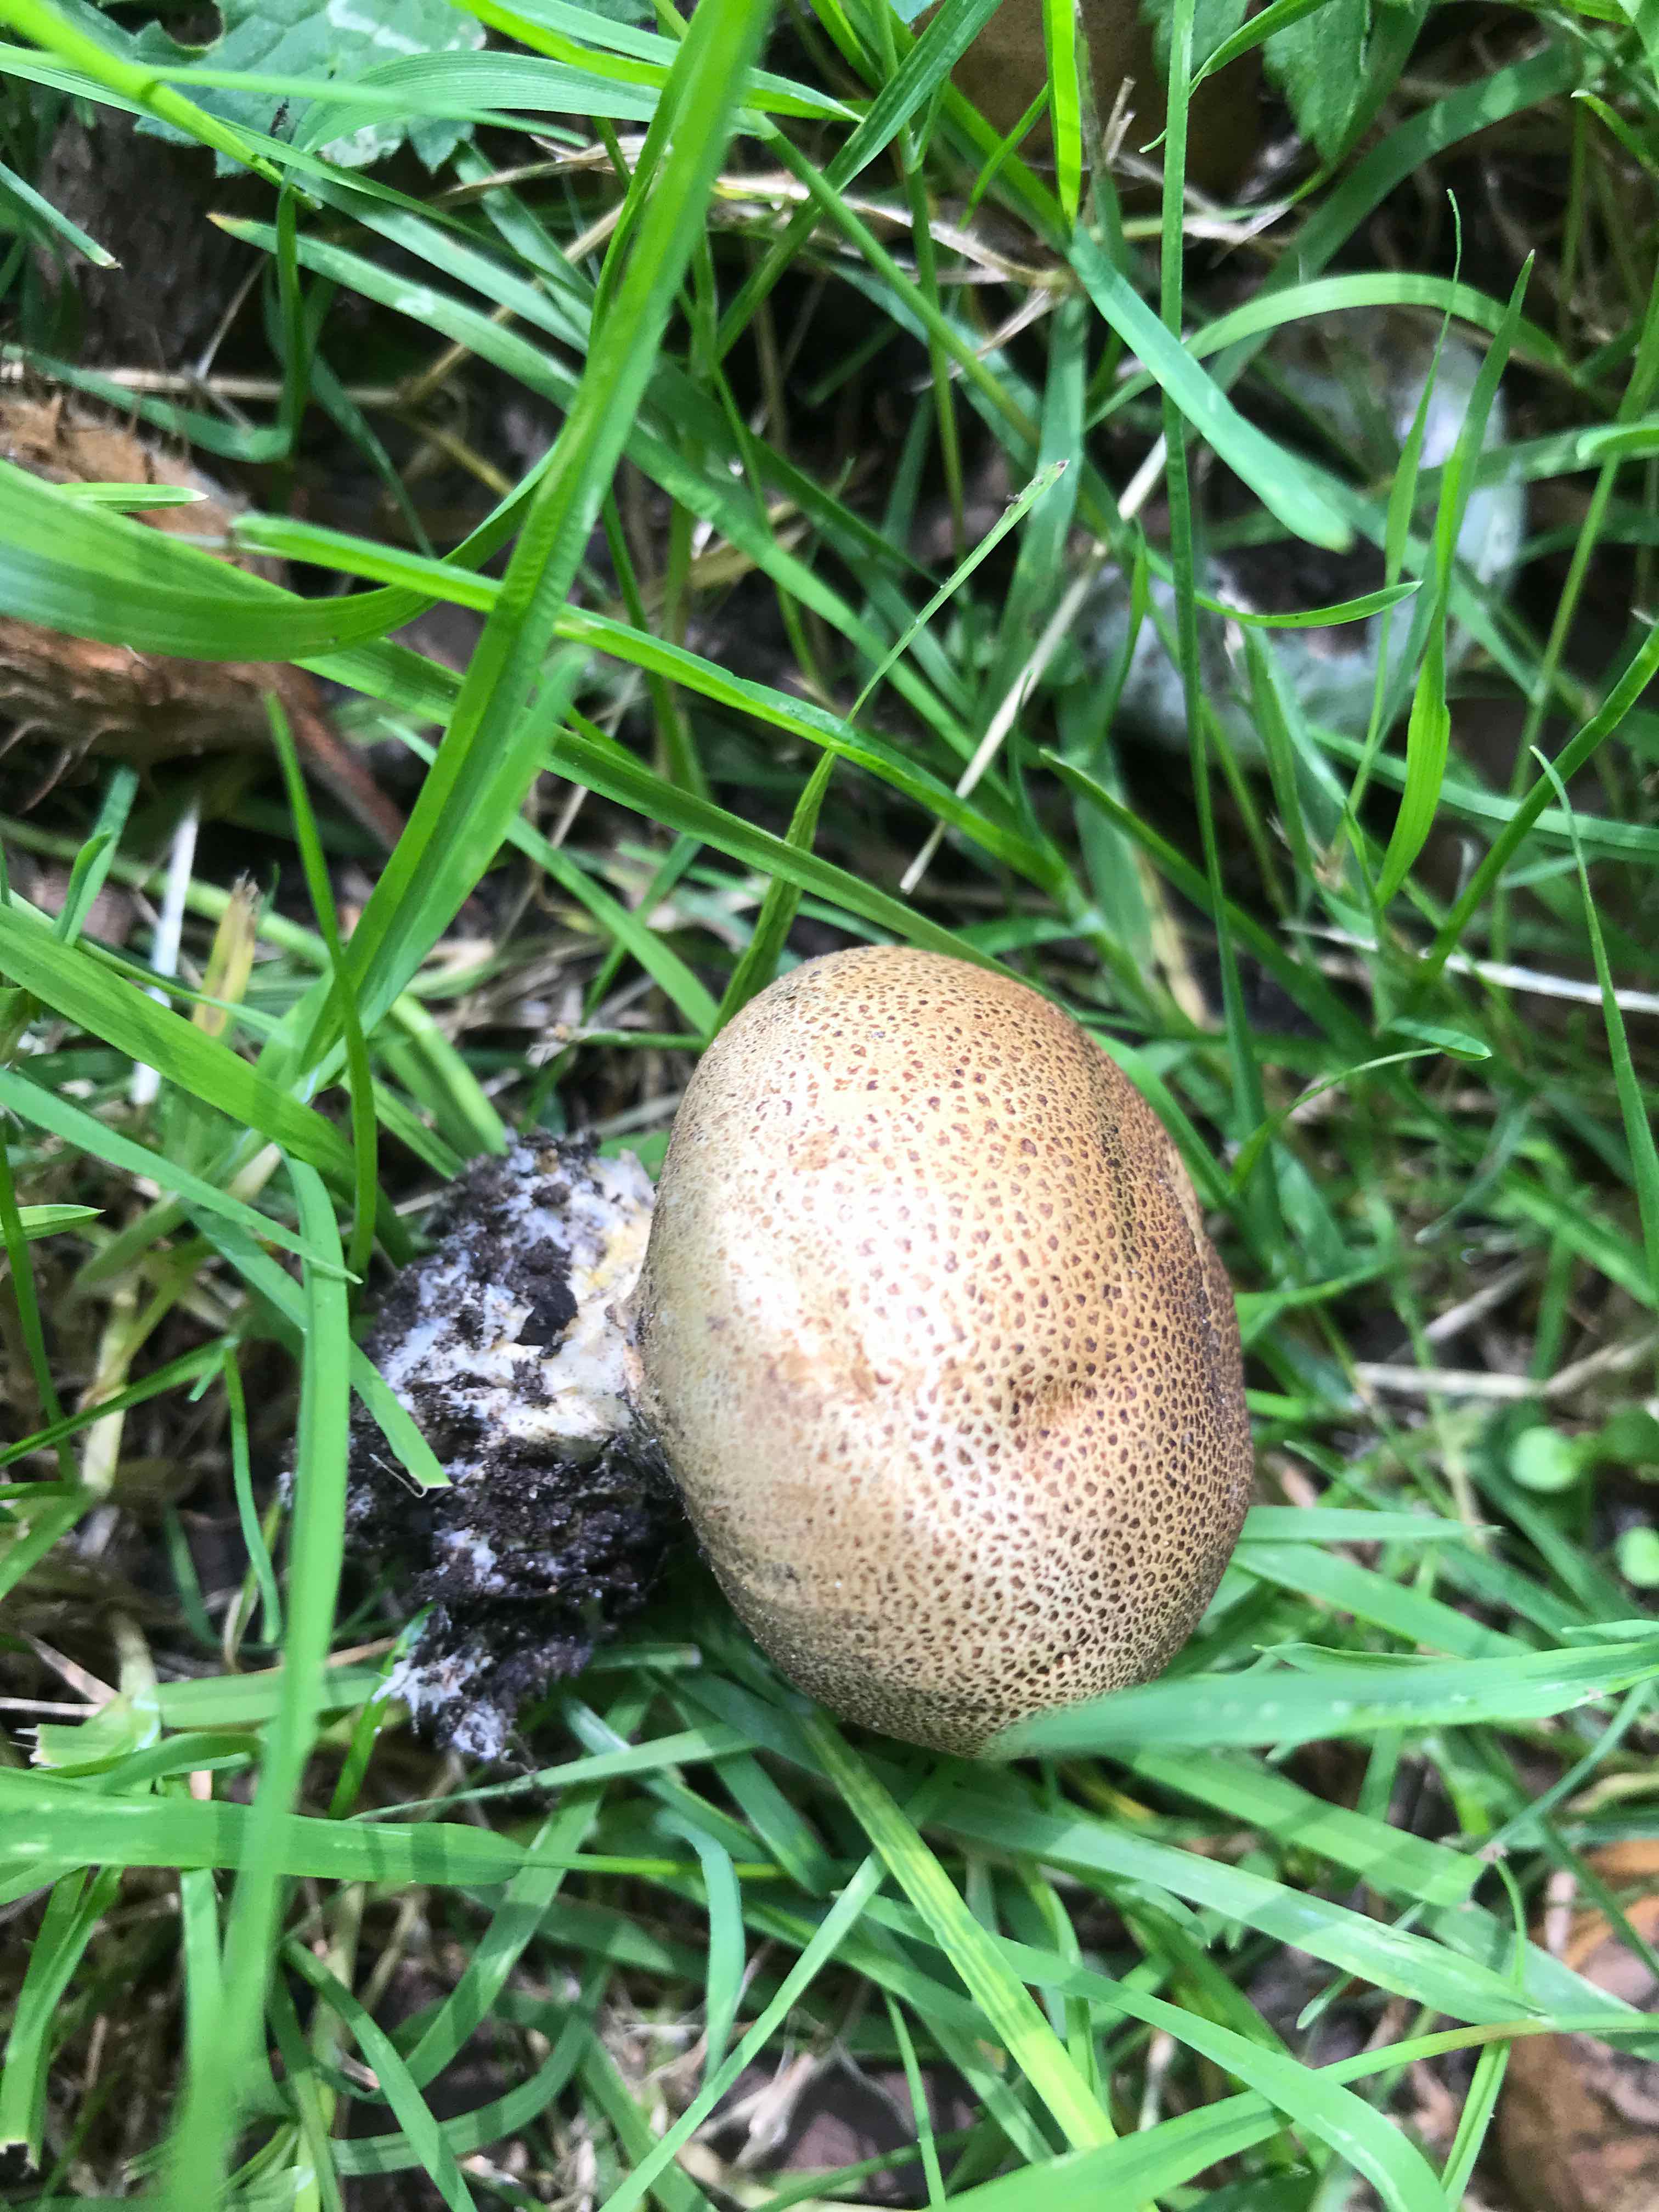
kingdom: Fungi
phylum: Basidiomycota
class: Agaricomycetes
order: Boletales
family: Sclerodermataceae
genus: Scleroderma
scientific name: Scleroderma verrucosum
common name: stilket bruskbold
